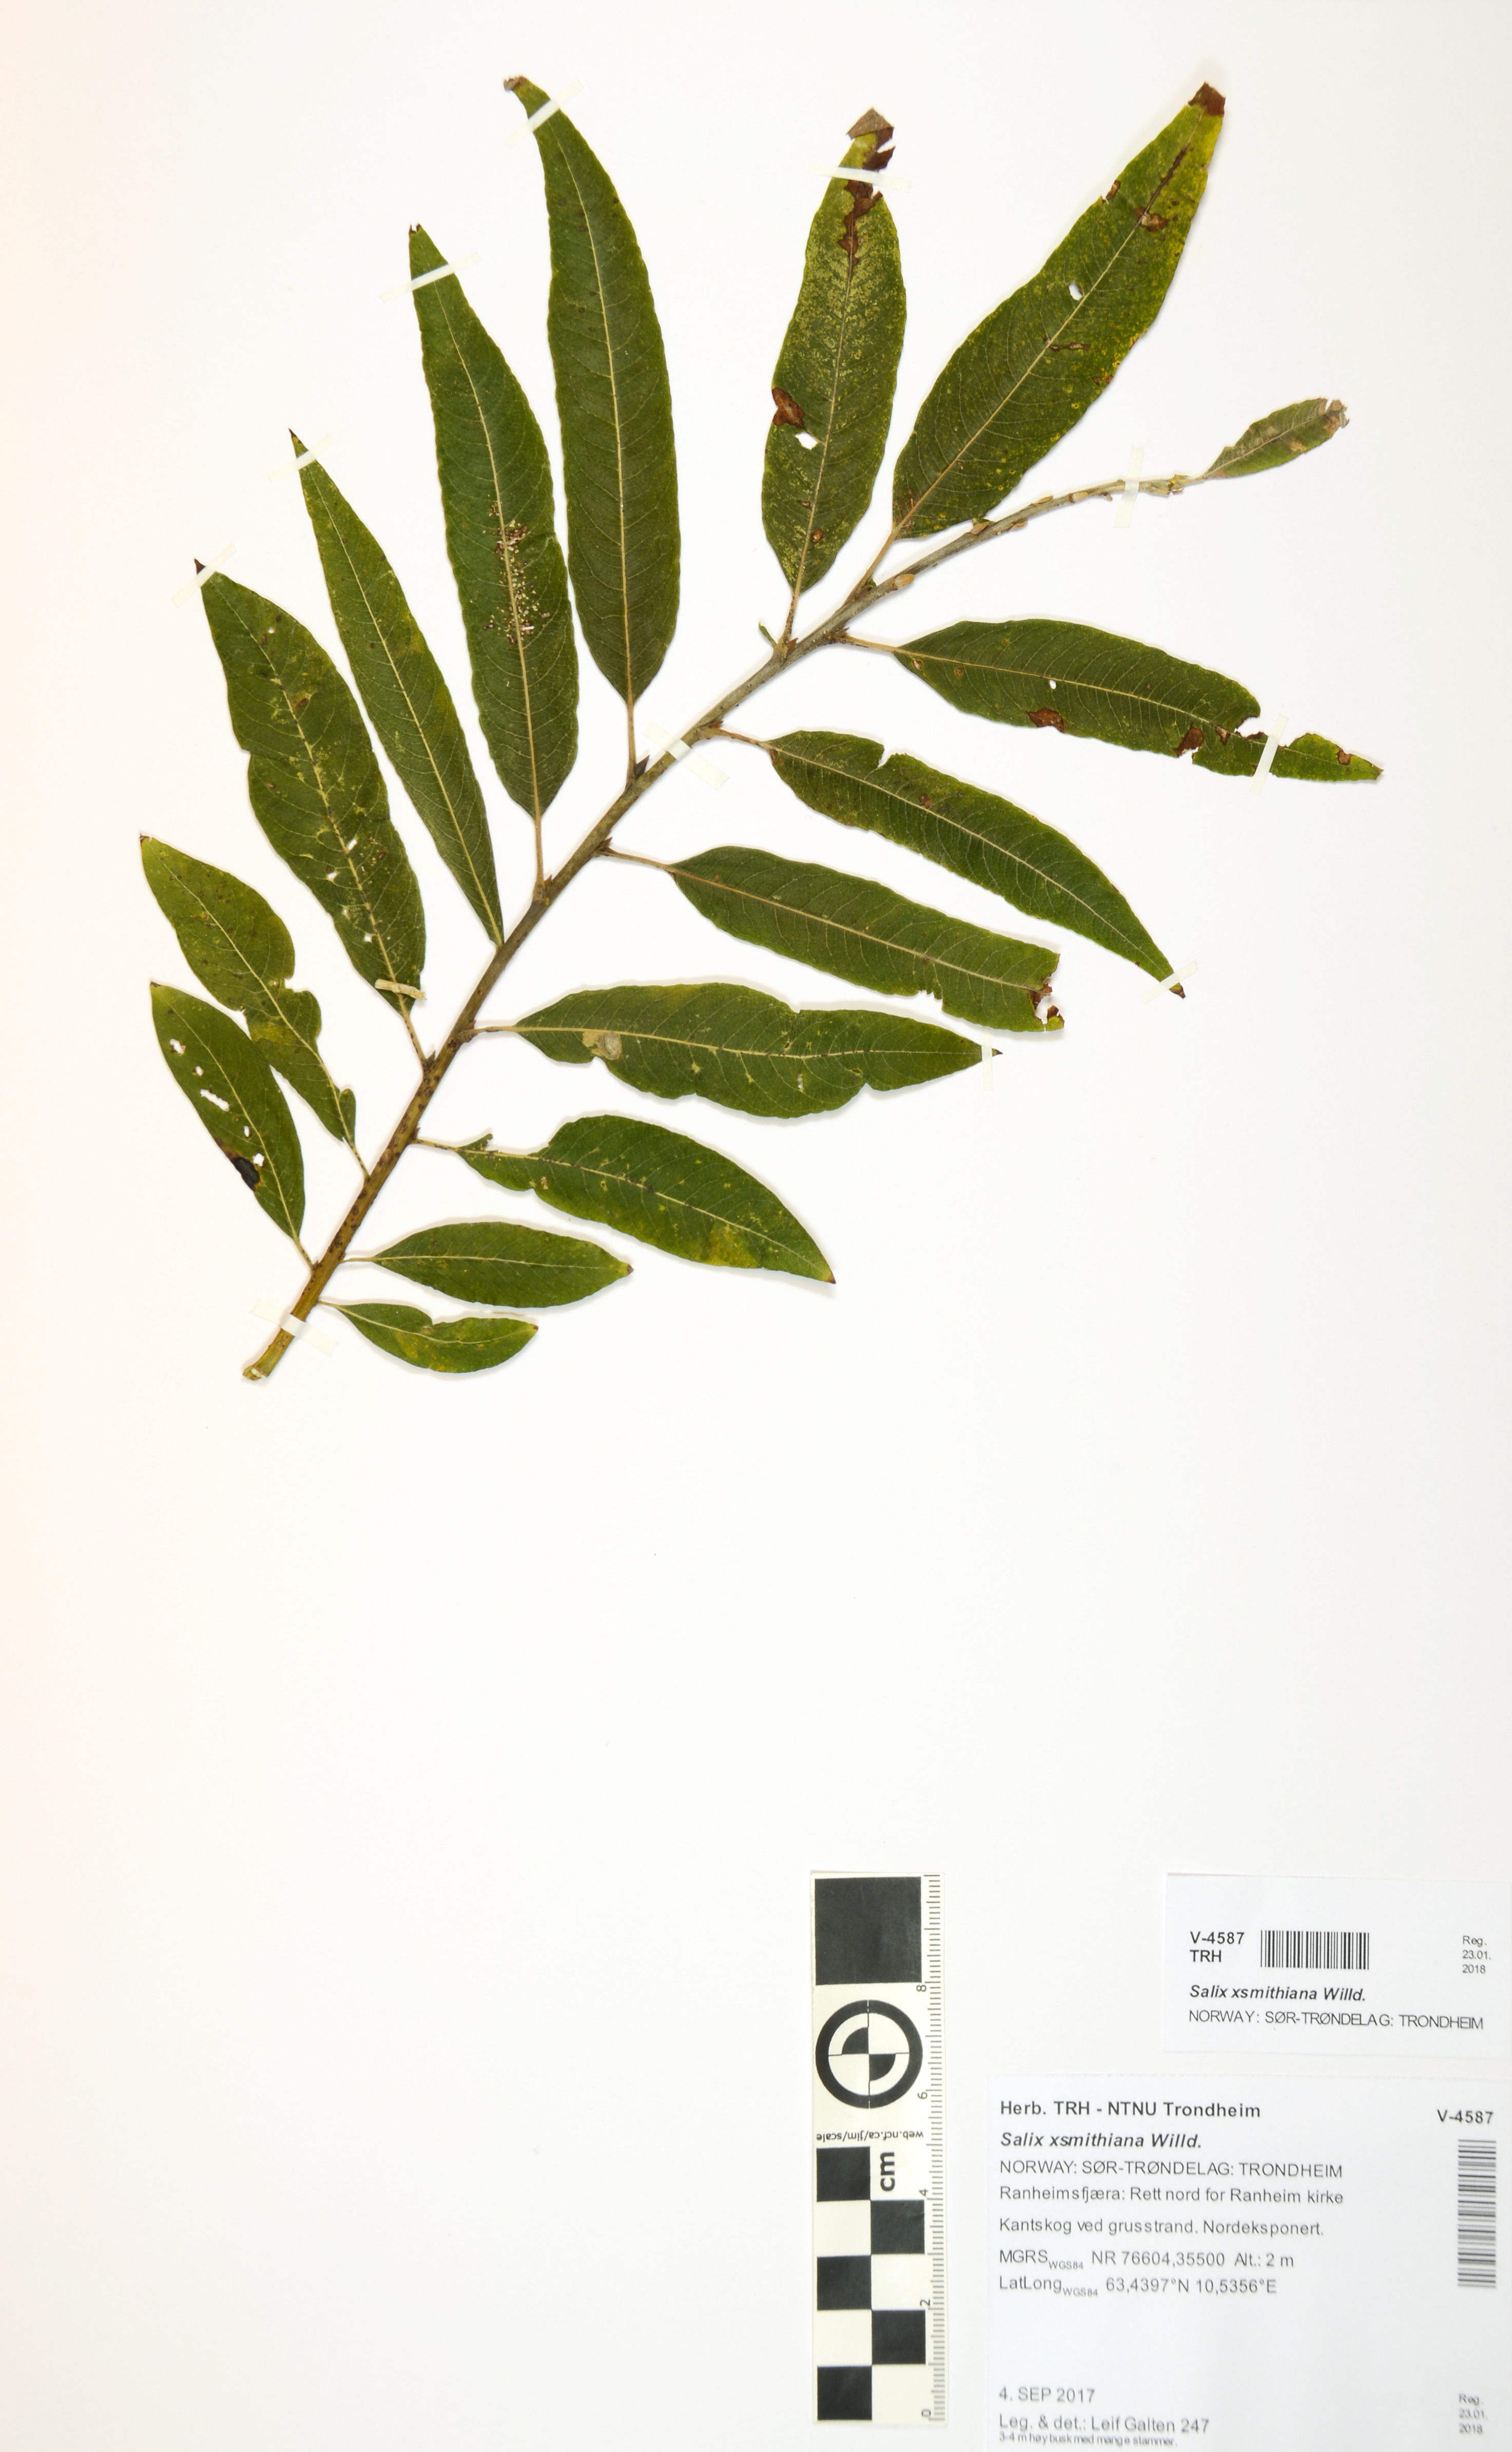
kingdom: Plantae
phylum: Tracheophyta
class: Magnoliopsida
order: Malpighiales
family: Salicaceae
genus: Salix
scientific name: Salix smithiana
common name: Silky-leaved osier
